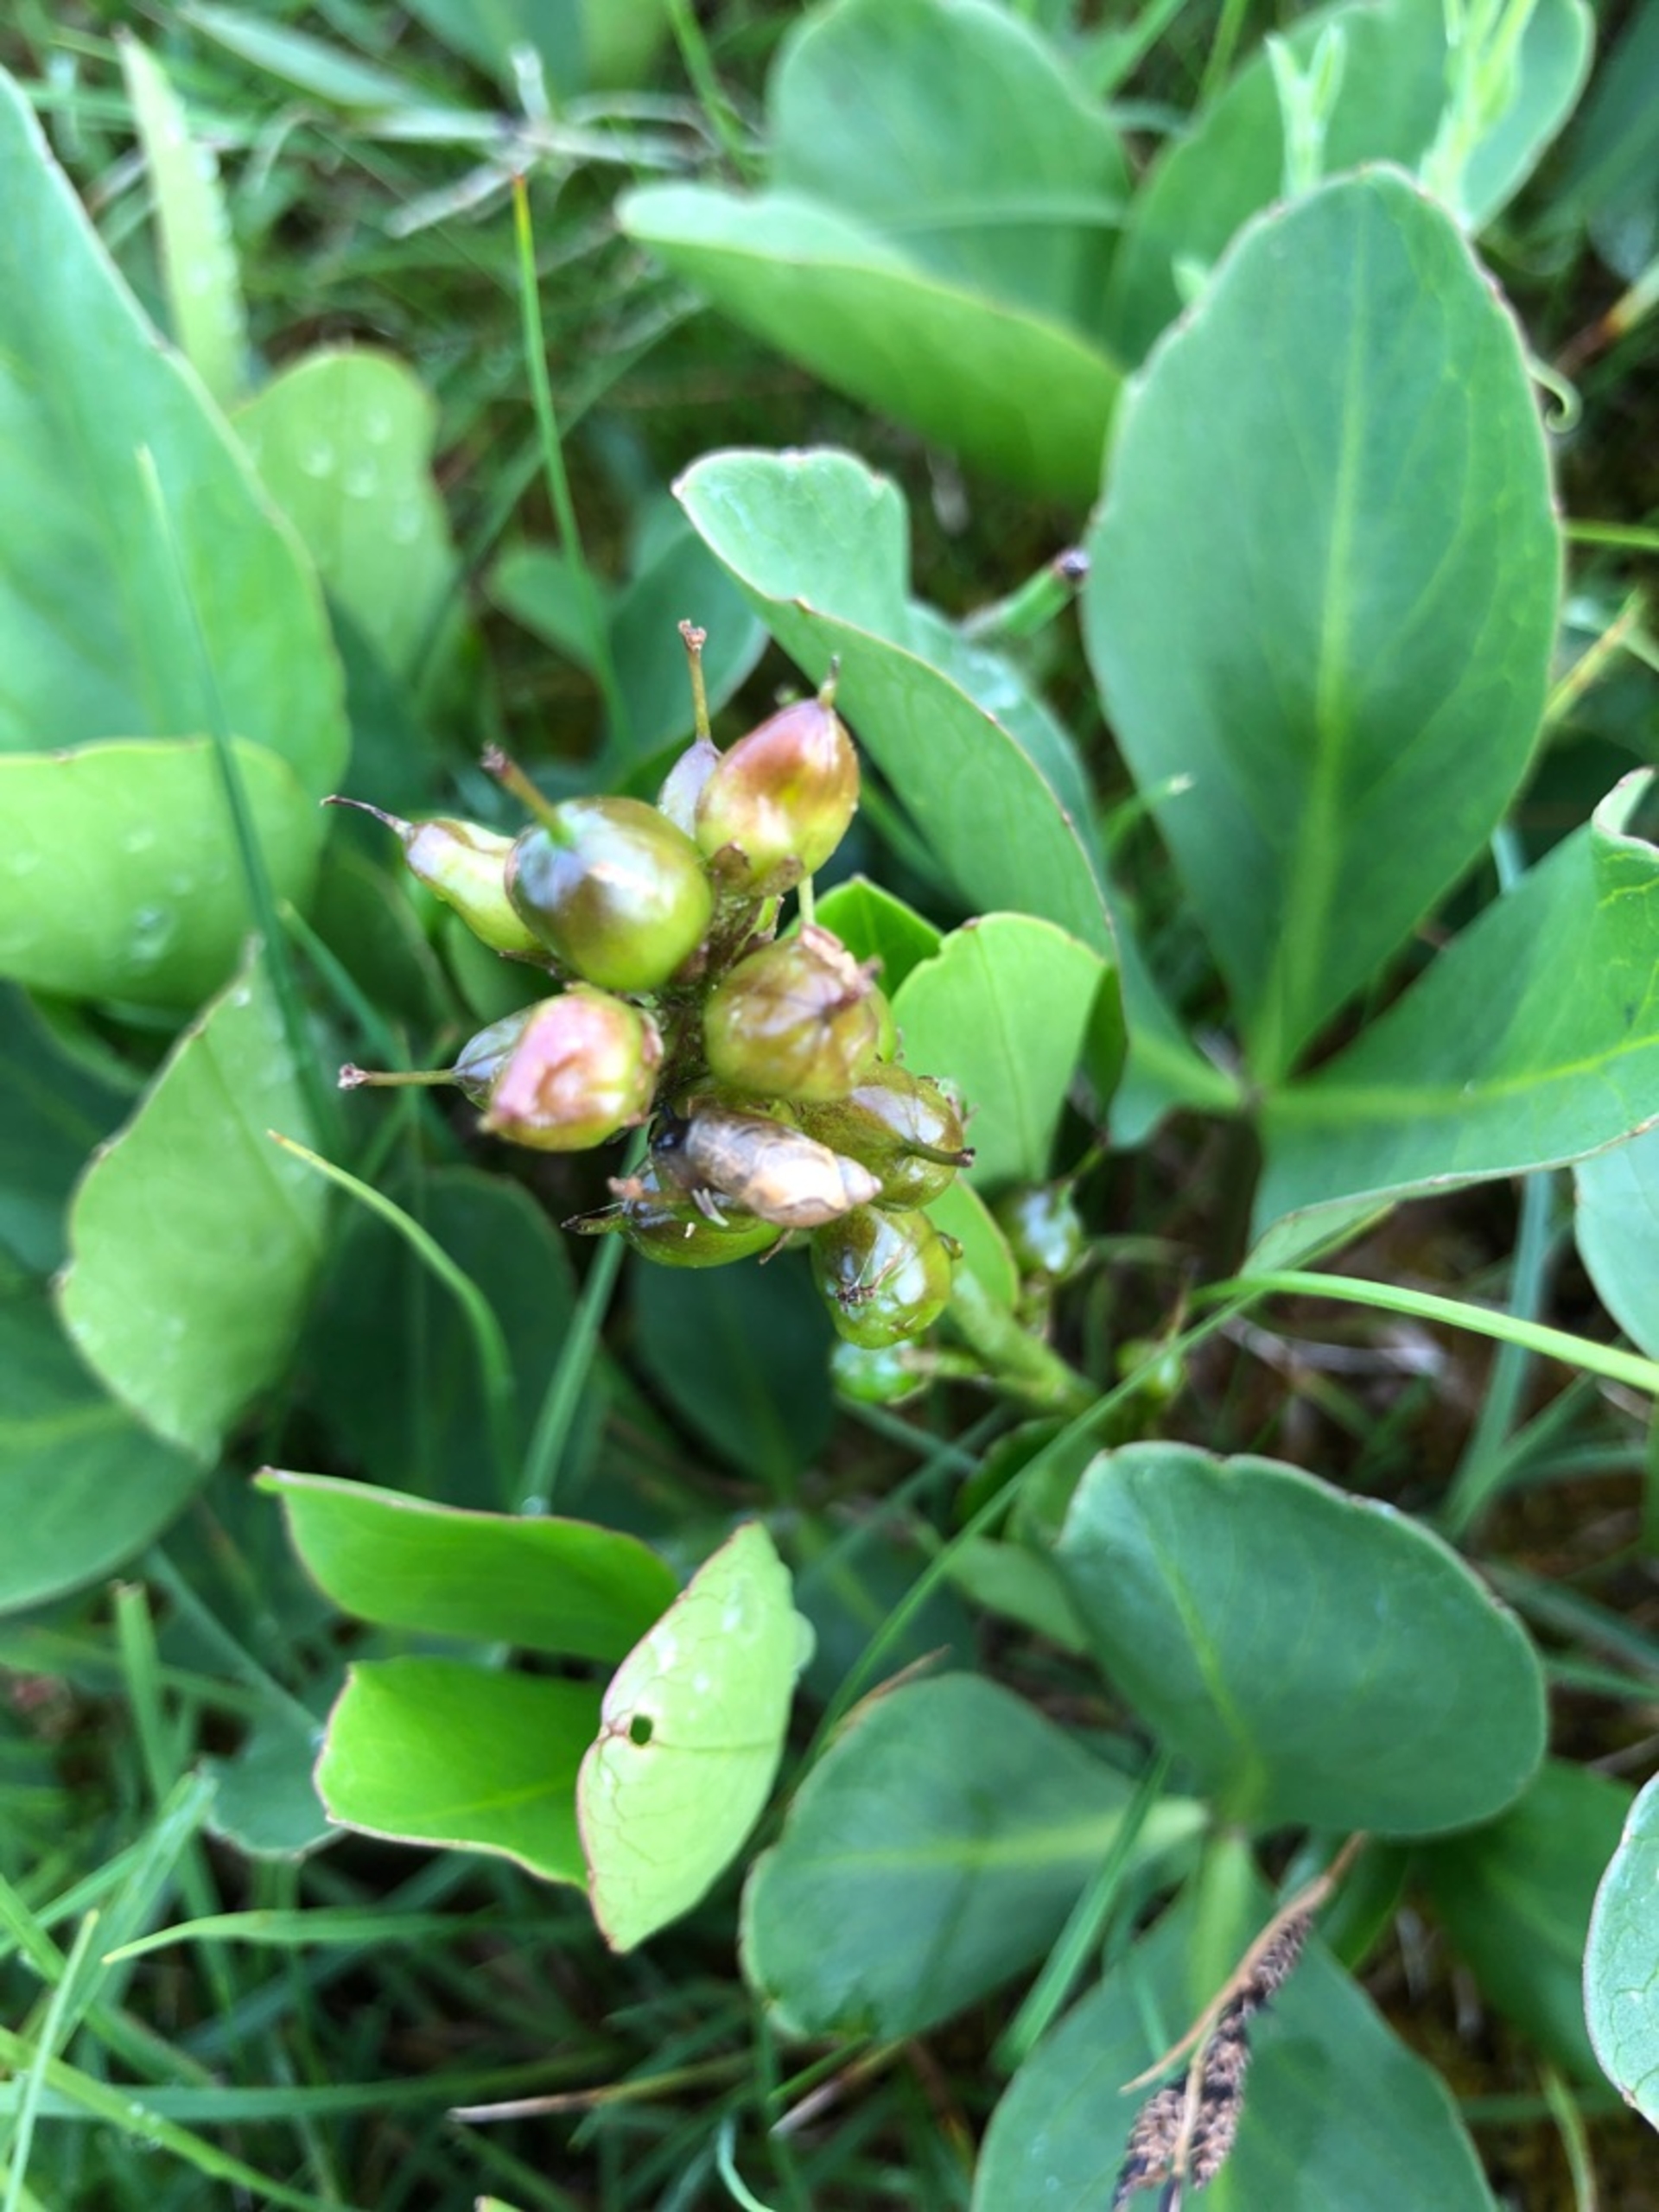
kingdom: Plantae
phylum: Tracheophyta
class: Magnoliopsida
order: Asterales
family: Menyanthaceae
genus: Menyanthes
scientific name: Menyanthes trifoliata
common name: Bukkeblad
